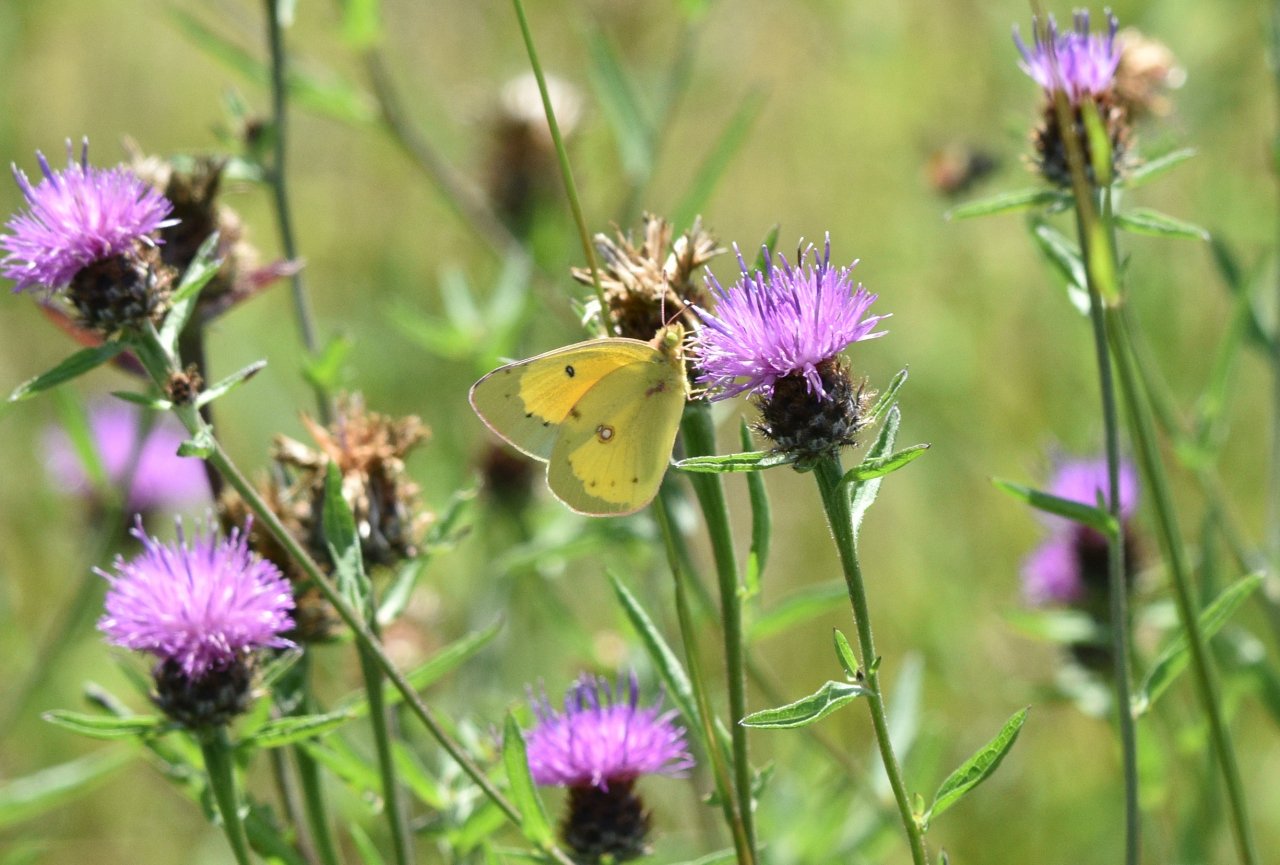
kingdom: Animalia
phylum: Arthropoda
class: Insecta
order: Lepidoptera
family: Pieridae
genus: Colias
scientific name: Colias eurytheme
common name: Orange Sulphur
